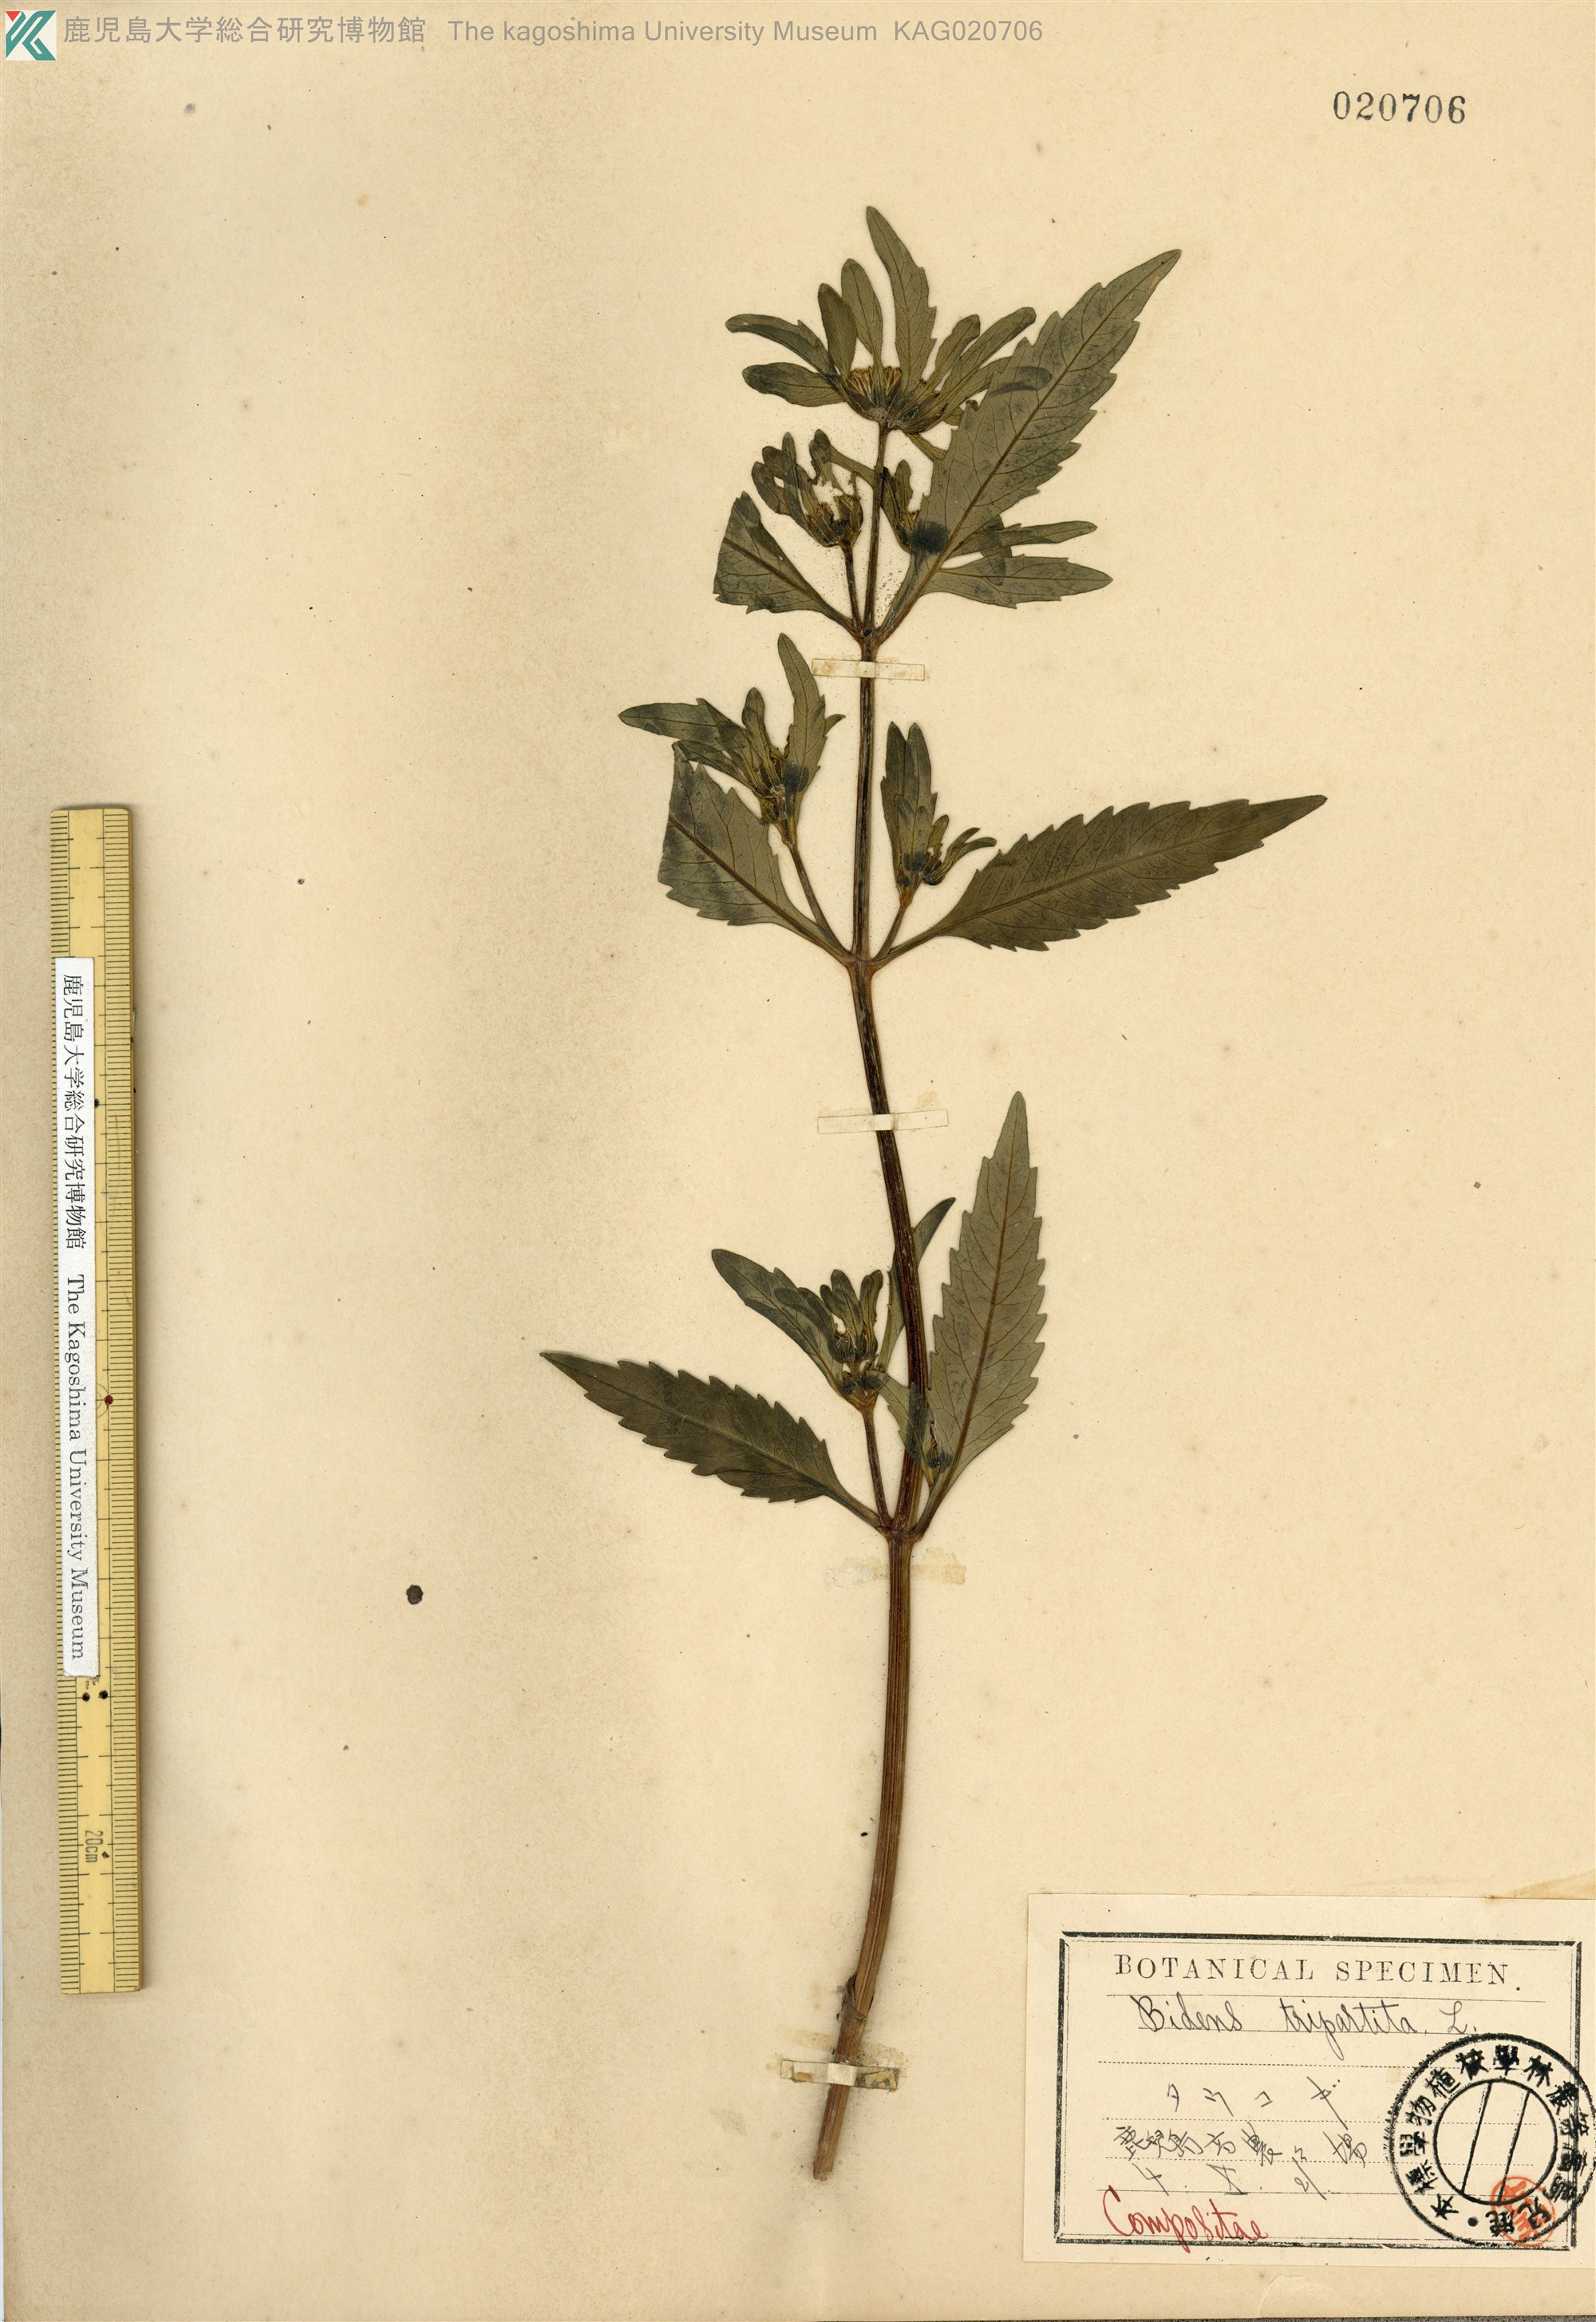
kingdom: Plantae
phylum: Tracheophyta
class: Magnoliopsida
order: Asterales
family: Asteraceae
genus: Bidens
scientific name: Bidens tripartita
